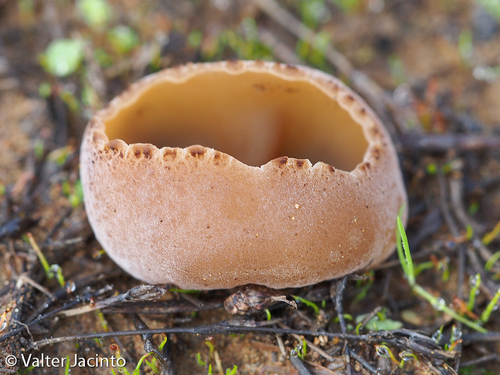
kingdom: Fungi
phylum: Ascomycota
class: Pezizomycetes
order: Pezizales
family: Pezizaceae
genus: Galactinia
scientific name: Galactinia granulosa
